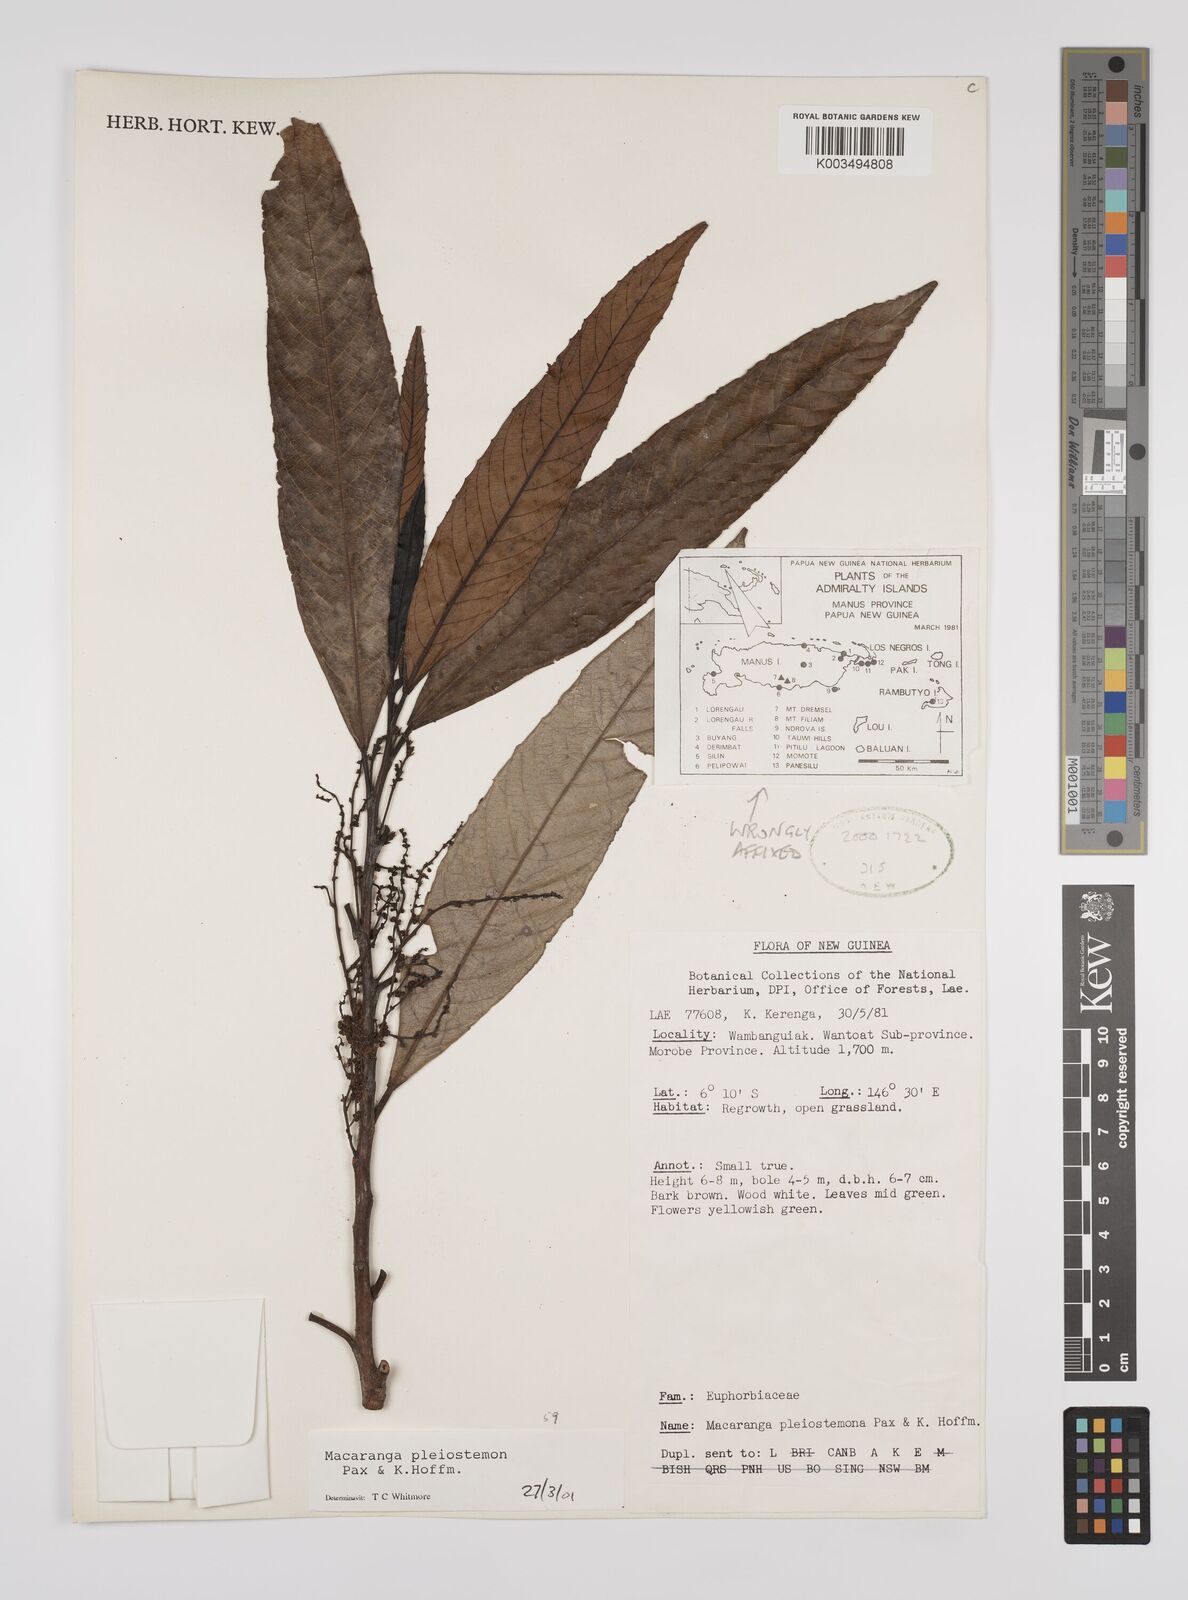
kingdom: Plantae
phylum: Tracheophyta
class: Magnoliopsida
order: Malpighiales
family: Euphorbiaceae
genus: Macaranga
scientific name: Macaranga pleiostemon
